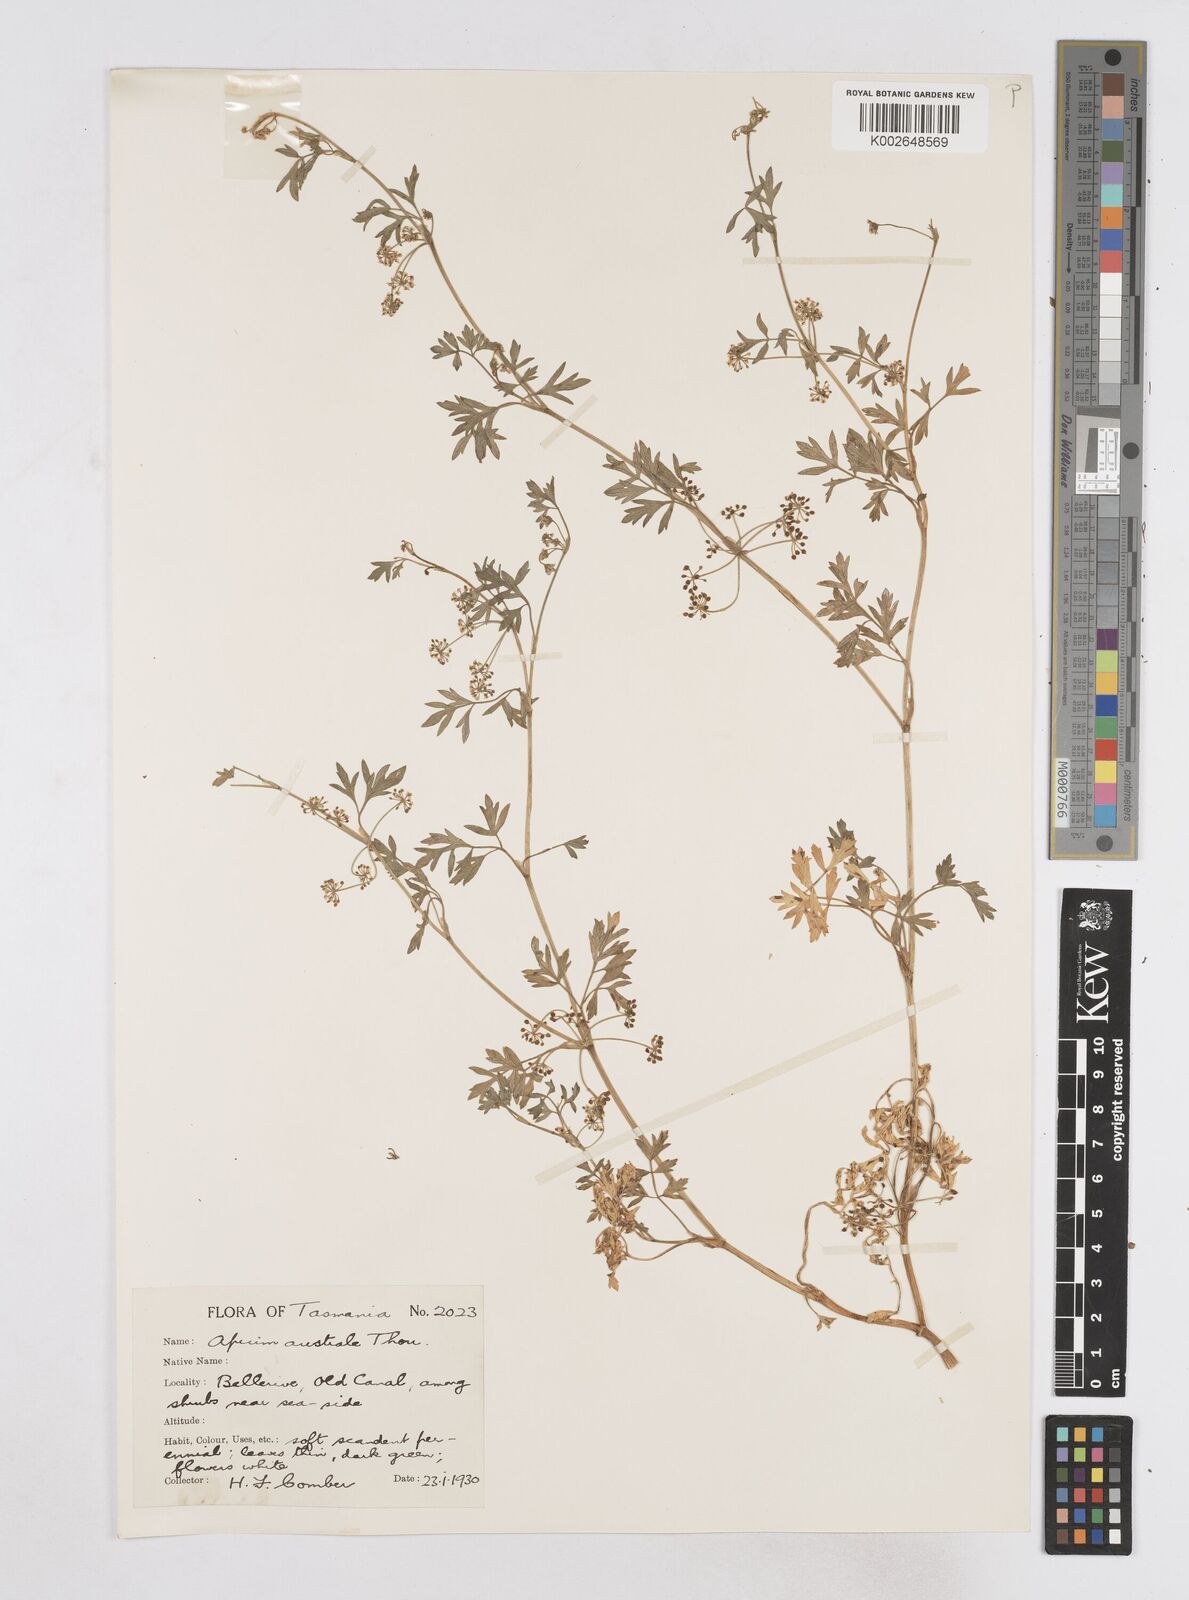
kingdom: Plantae
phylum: Tracheophyta
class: Magnoliopsida
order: Apiales
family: Apiaceae
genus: Apium
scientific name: Apium prostratum
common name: Prostrate marshwort
